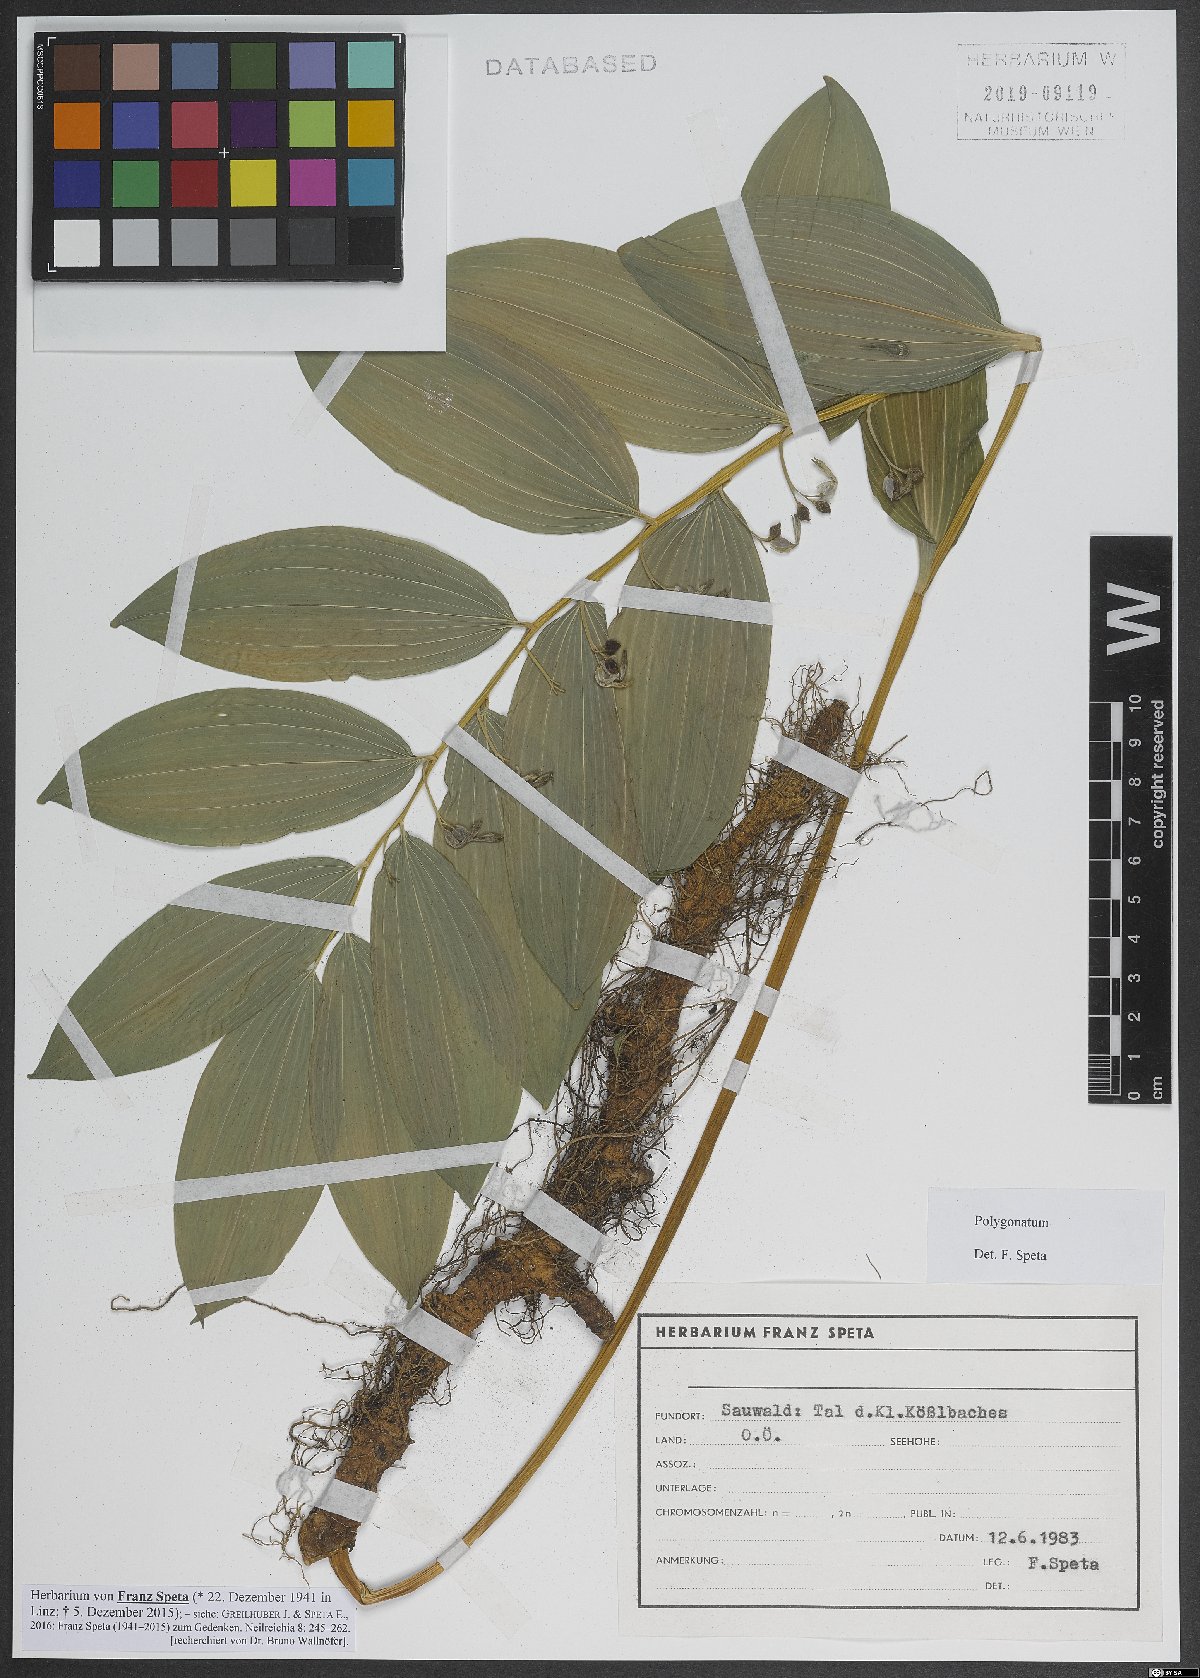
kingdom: Plantae
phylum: Tracheophyta
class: Liliopsida
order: Asparagales
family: Asparagaceae
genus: Polygonatum
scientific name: Polygonatum
